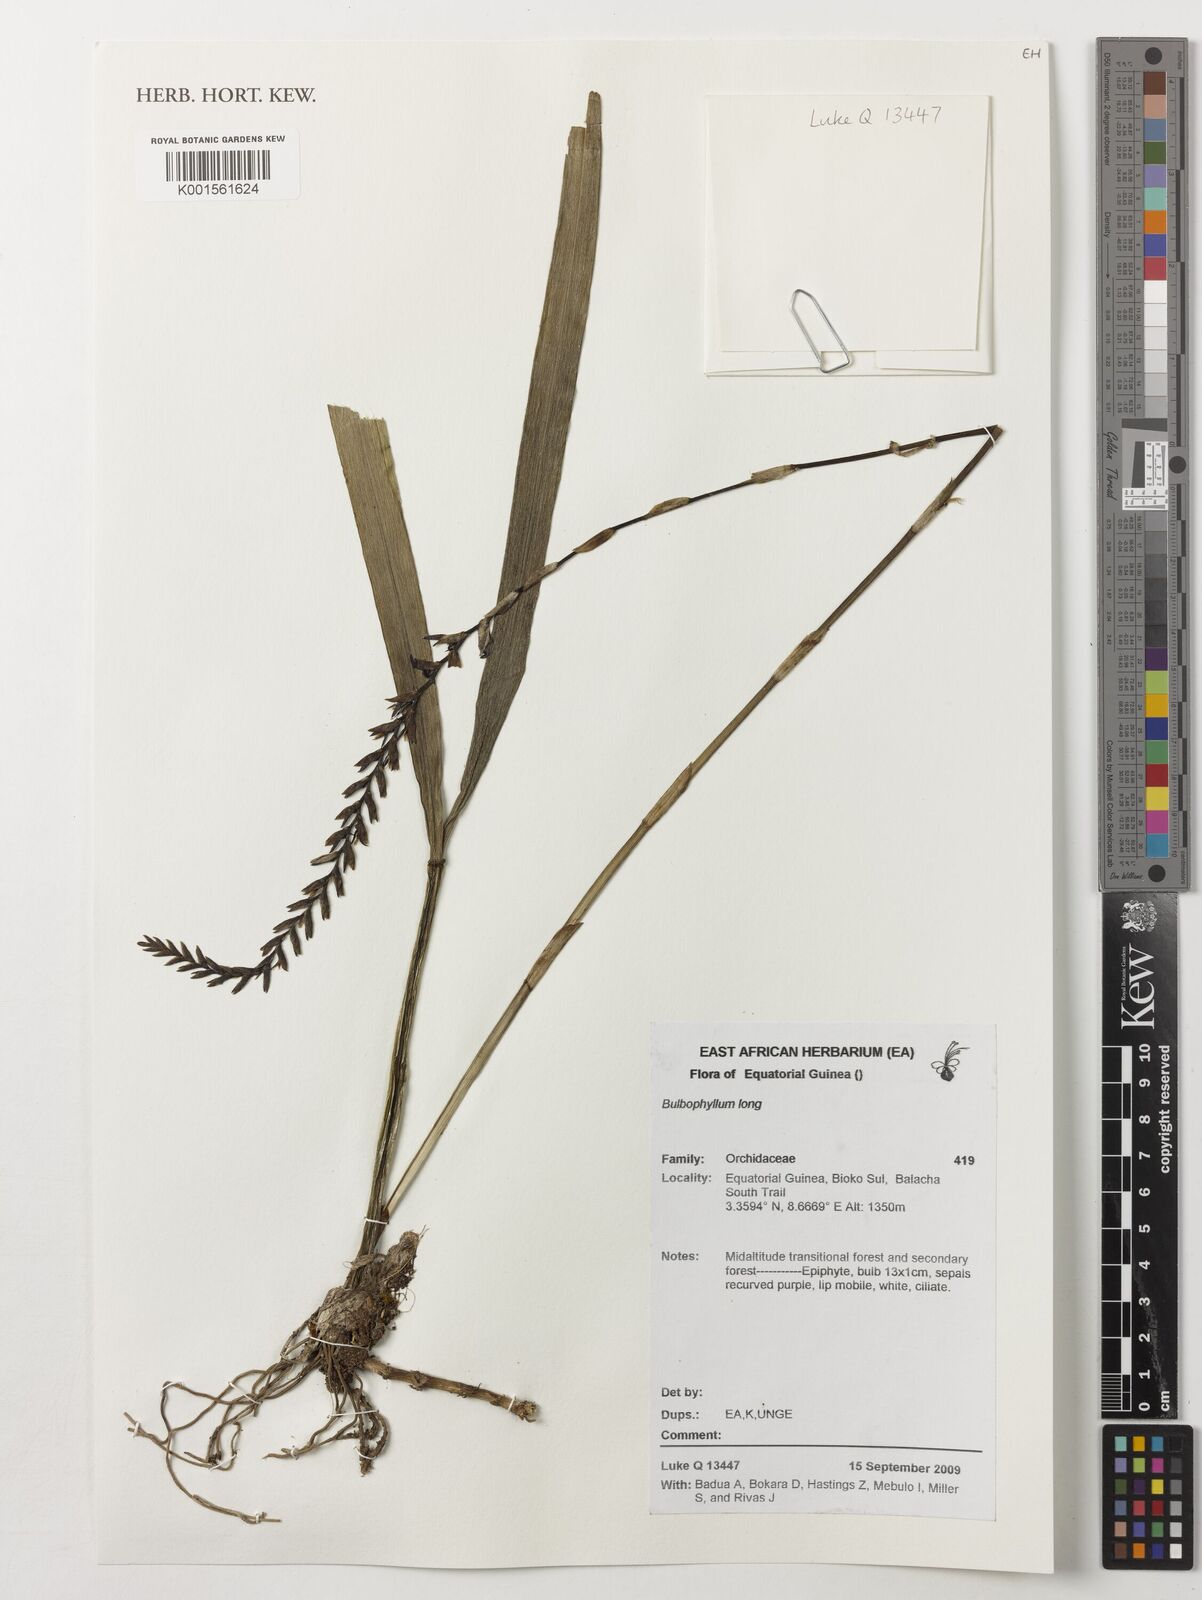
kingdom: Plantae
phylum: Tracheophyta
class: Liliopsida
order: Asparagales
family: Orchidaceae
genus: Bulbophyllum
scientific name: Bulbophyllum
